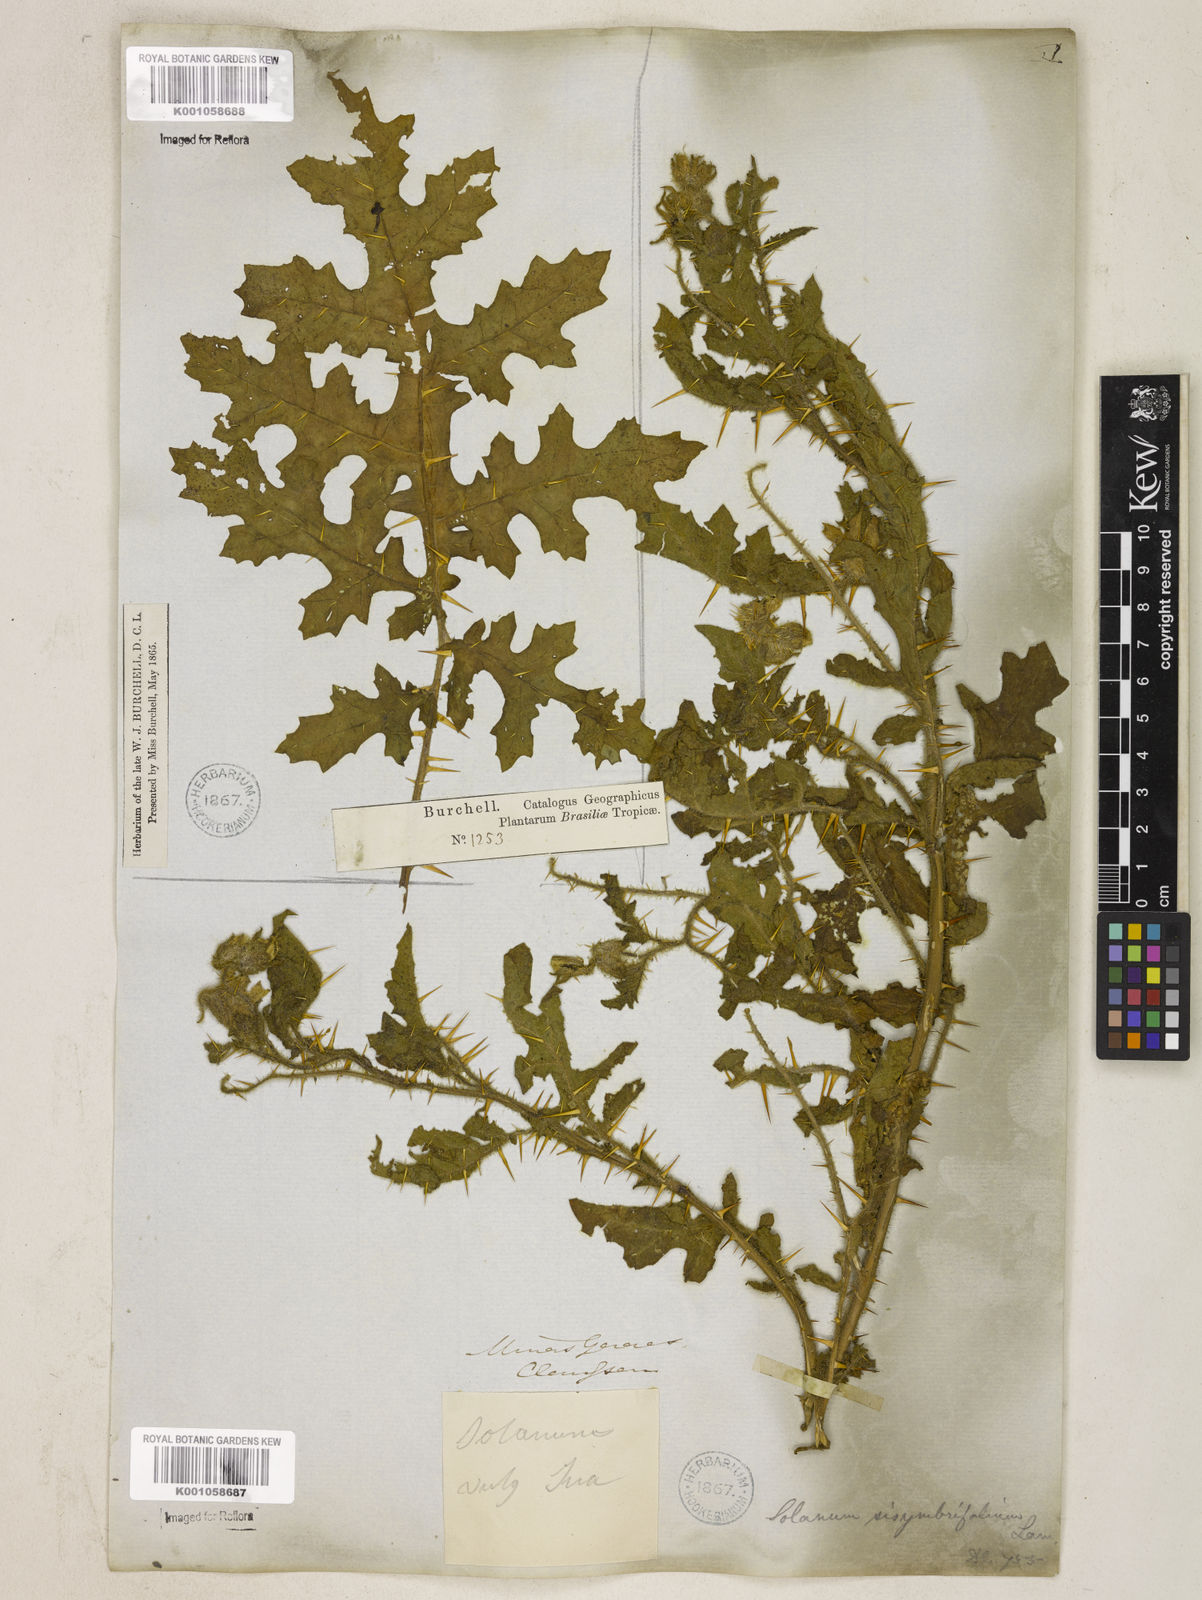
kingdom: Plantae
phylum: Tracheophyta
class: Magnoliopsida
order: Solanales
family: Solanaceae
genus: Solanum
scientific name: Solanum sisymbriifolium
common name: Red buffalo-bur
